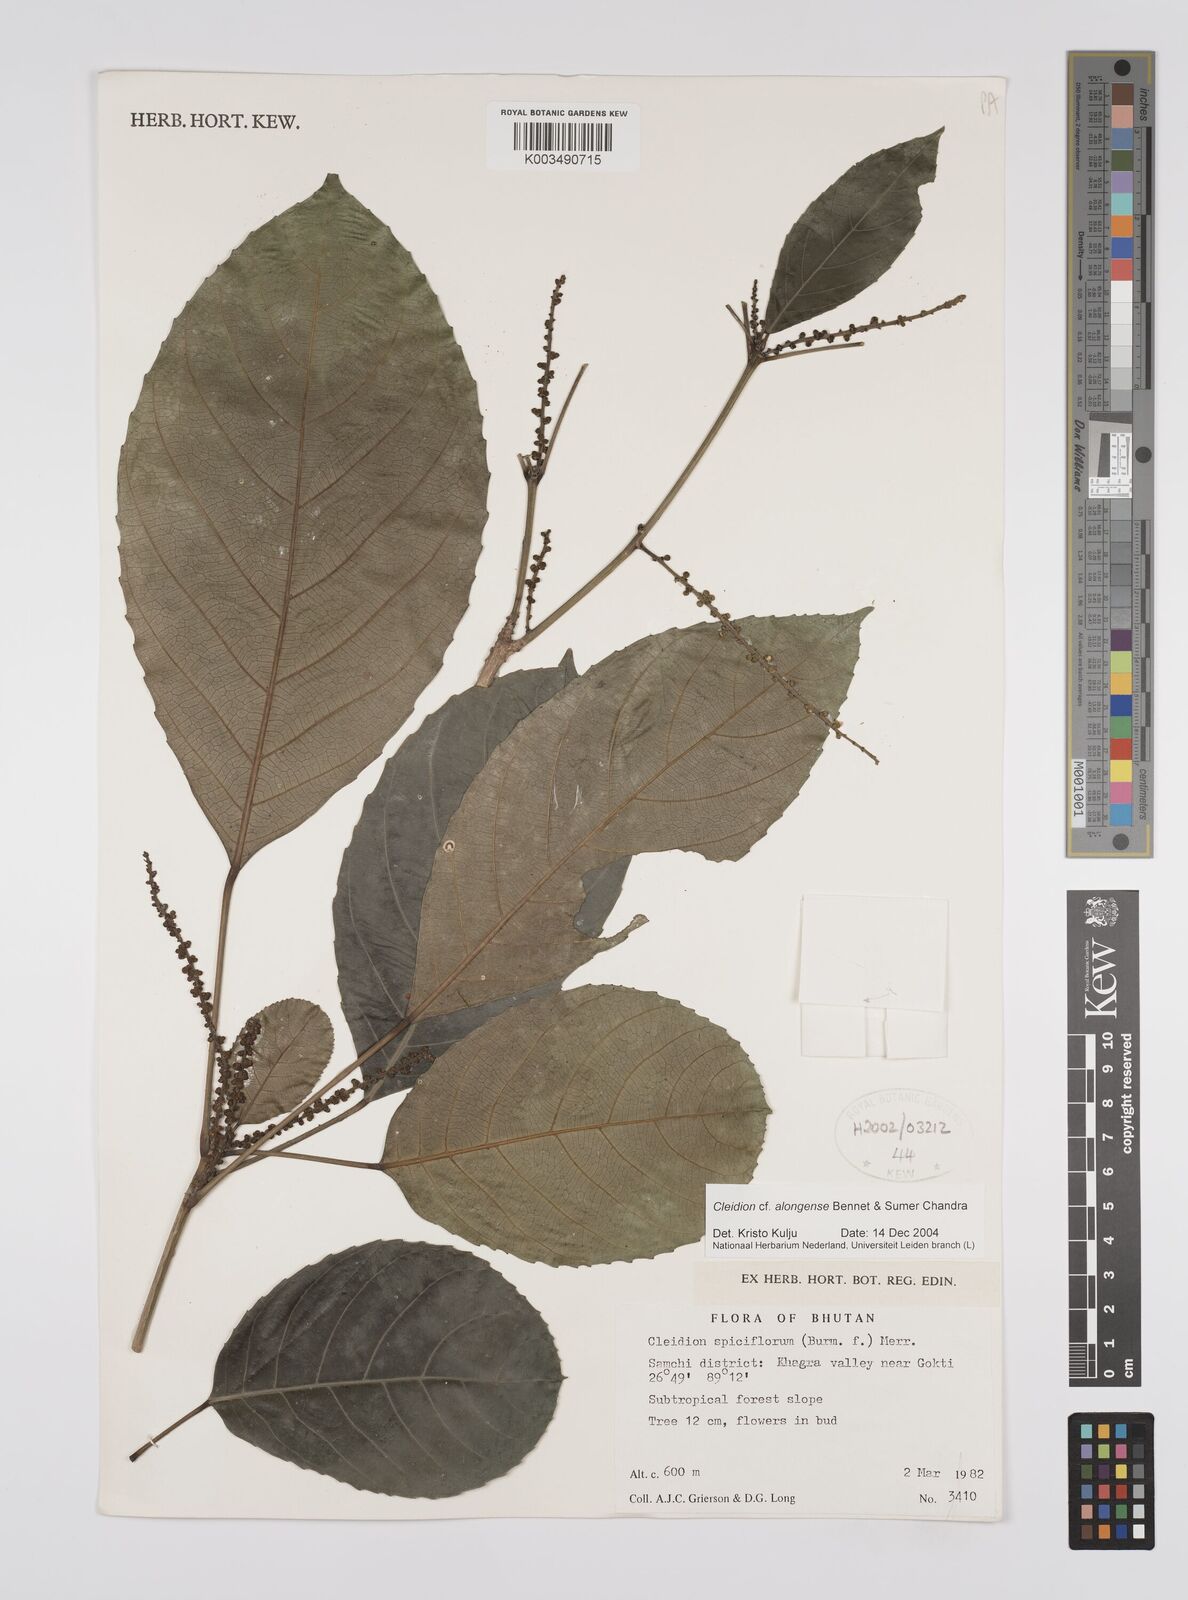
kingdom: Plantae
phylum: Tracheophyta
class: Magnoliopsida
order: Malpighiales
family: Euphorbiaceae
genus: Cleidion
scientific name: Cleidion javanicum
